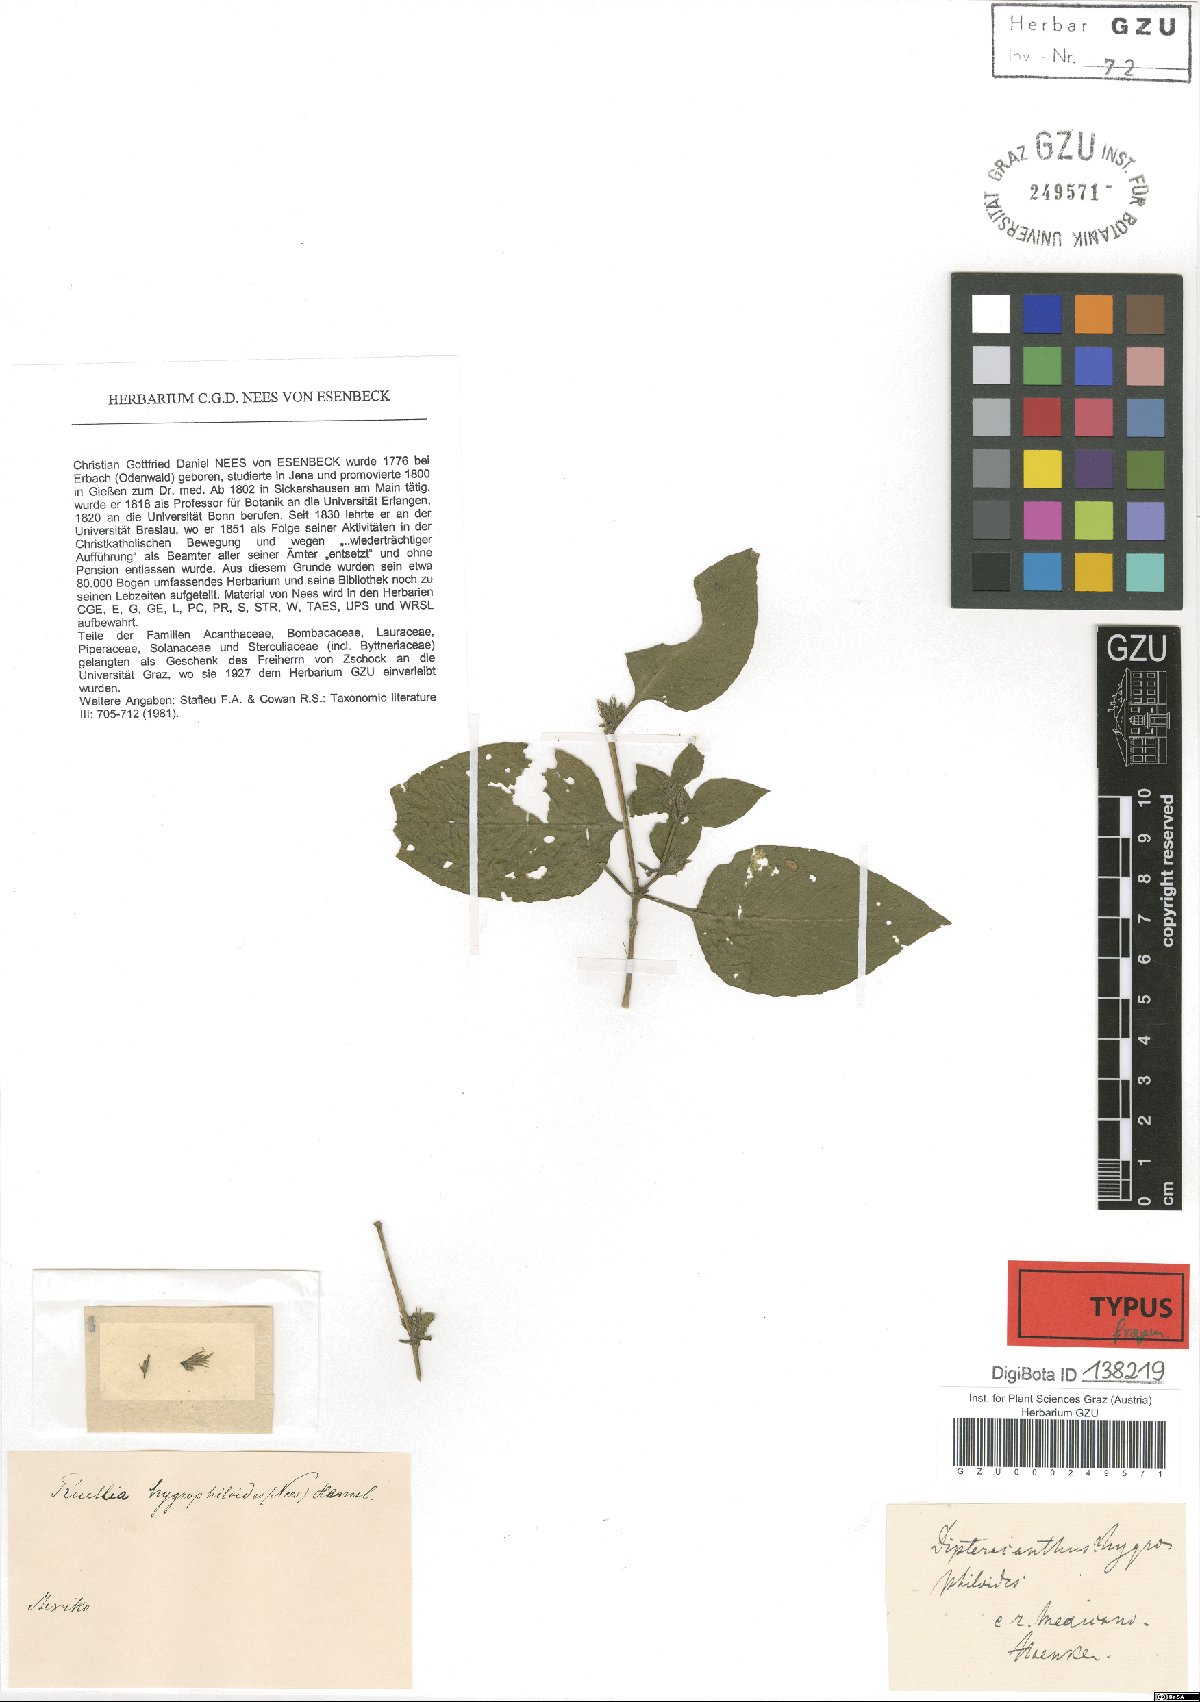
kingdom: Plantae
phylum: Tracheophyta
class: Magnoliopsida
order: Lamiales
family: Acanthaceae
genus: Ruellia
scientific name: Ruellia hygrophiloides
